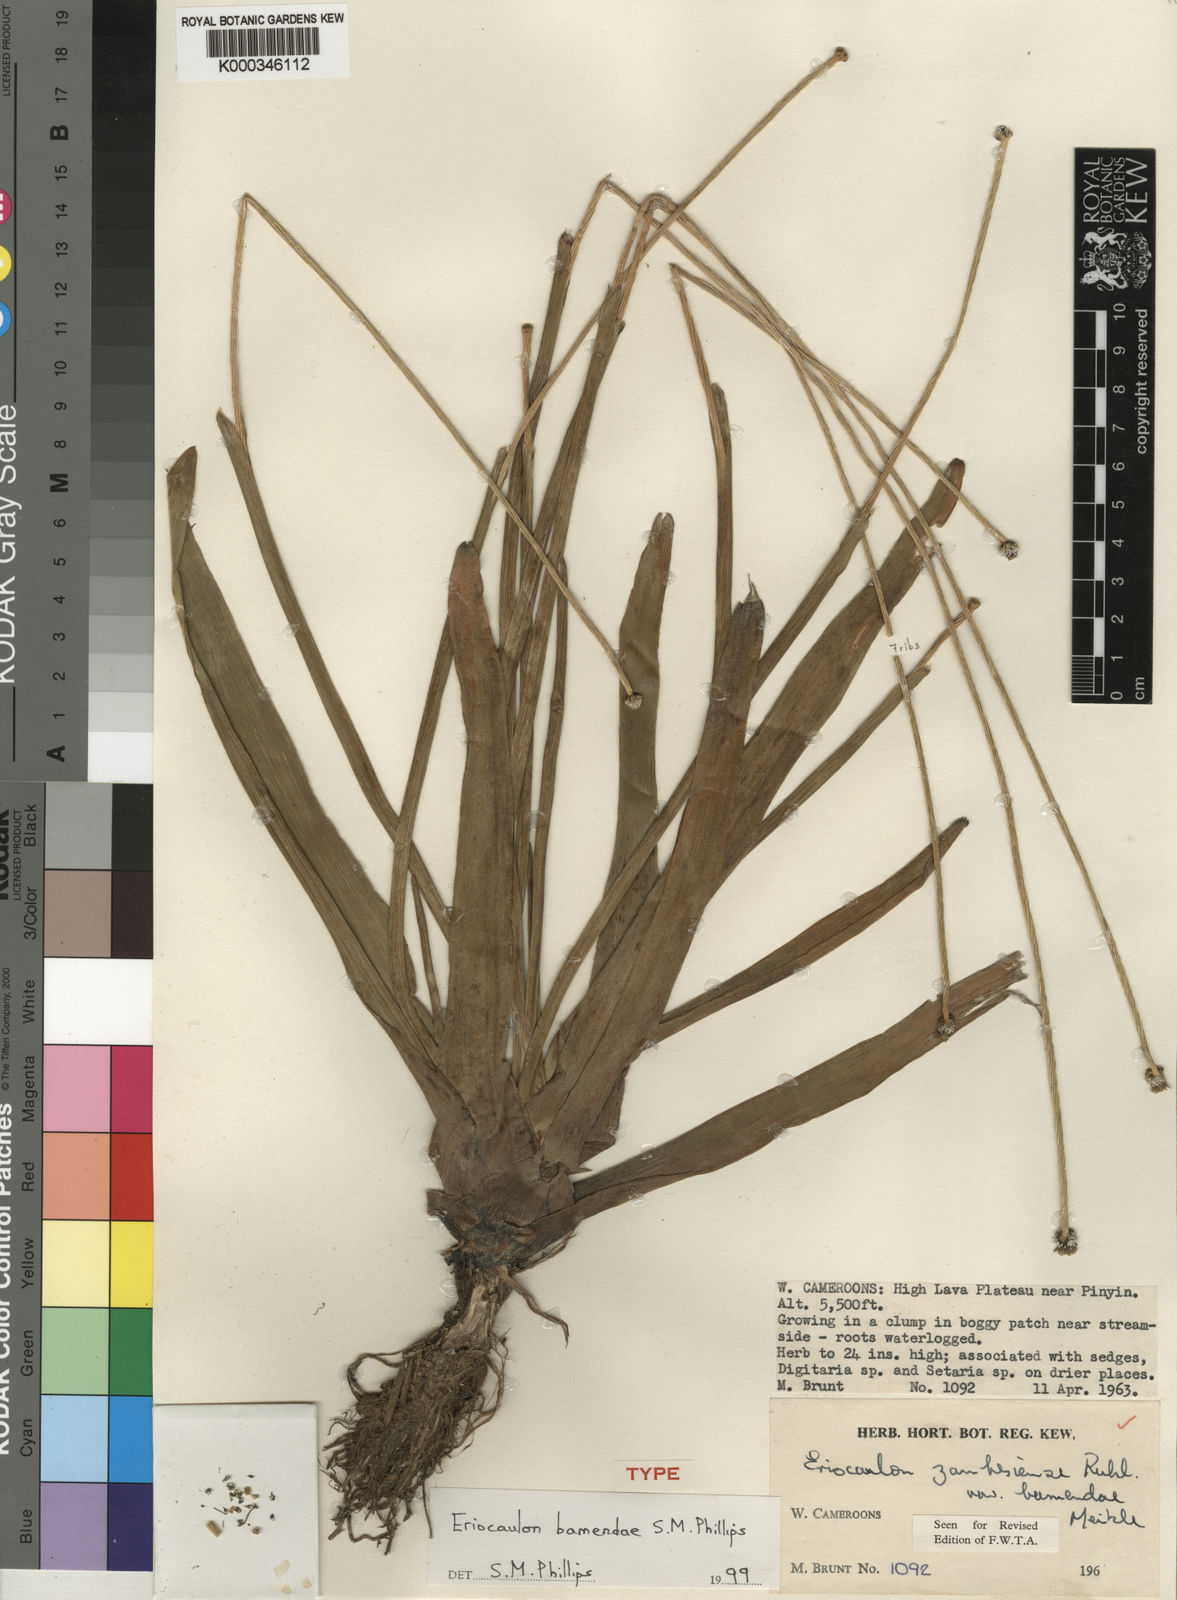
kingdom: Plantae
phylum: Tracheophyta
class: Liliopsida
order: Poales
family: Eriocaulaceae
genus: Eriocaulon
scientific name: Eriocaulon bamendae
